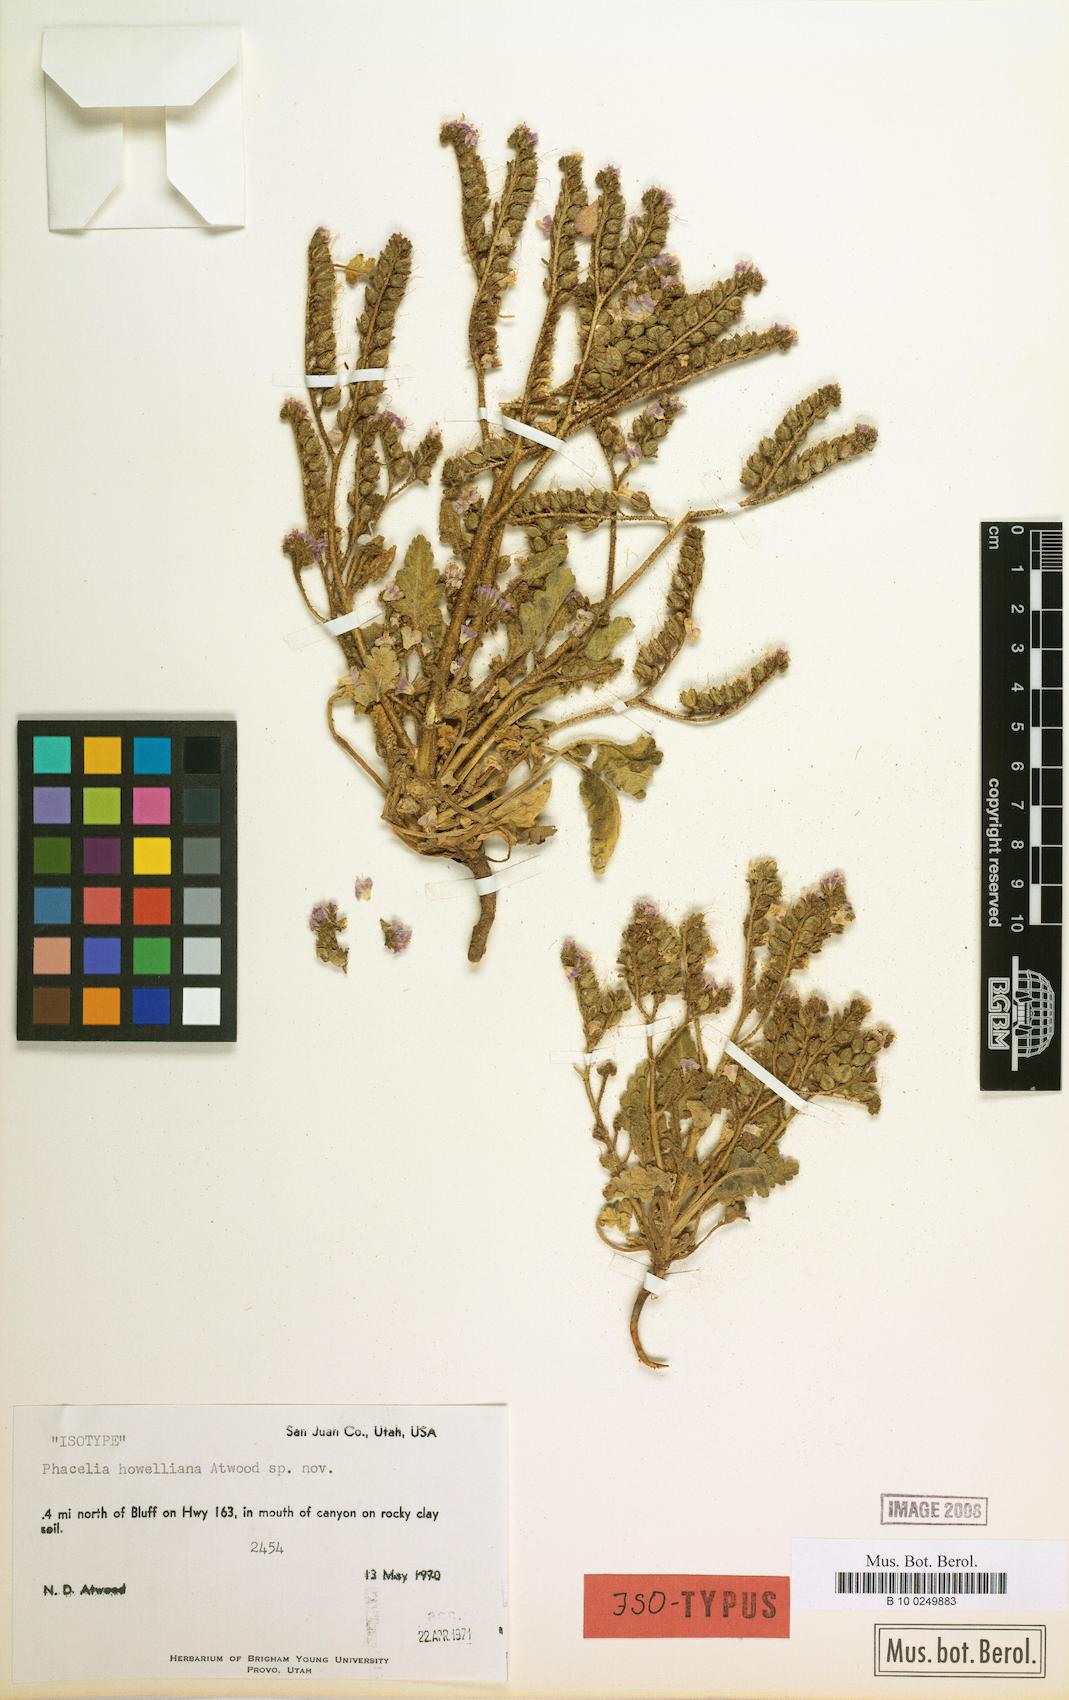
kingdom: Plantae
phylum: Tracheophyta
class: Magnoliopsida
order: Boraginales
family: Hydrophyllaceae
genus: Phacelia
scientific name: Phacelia howelliana
